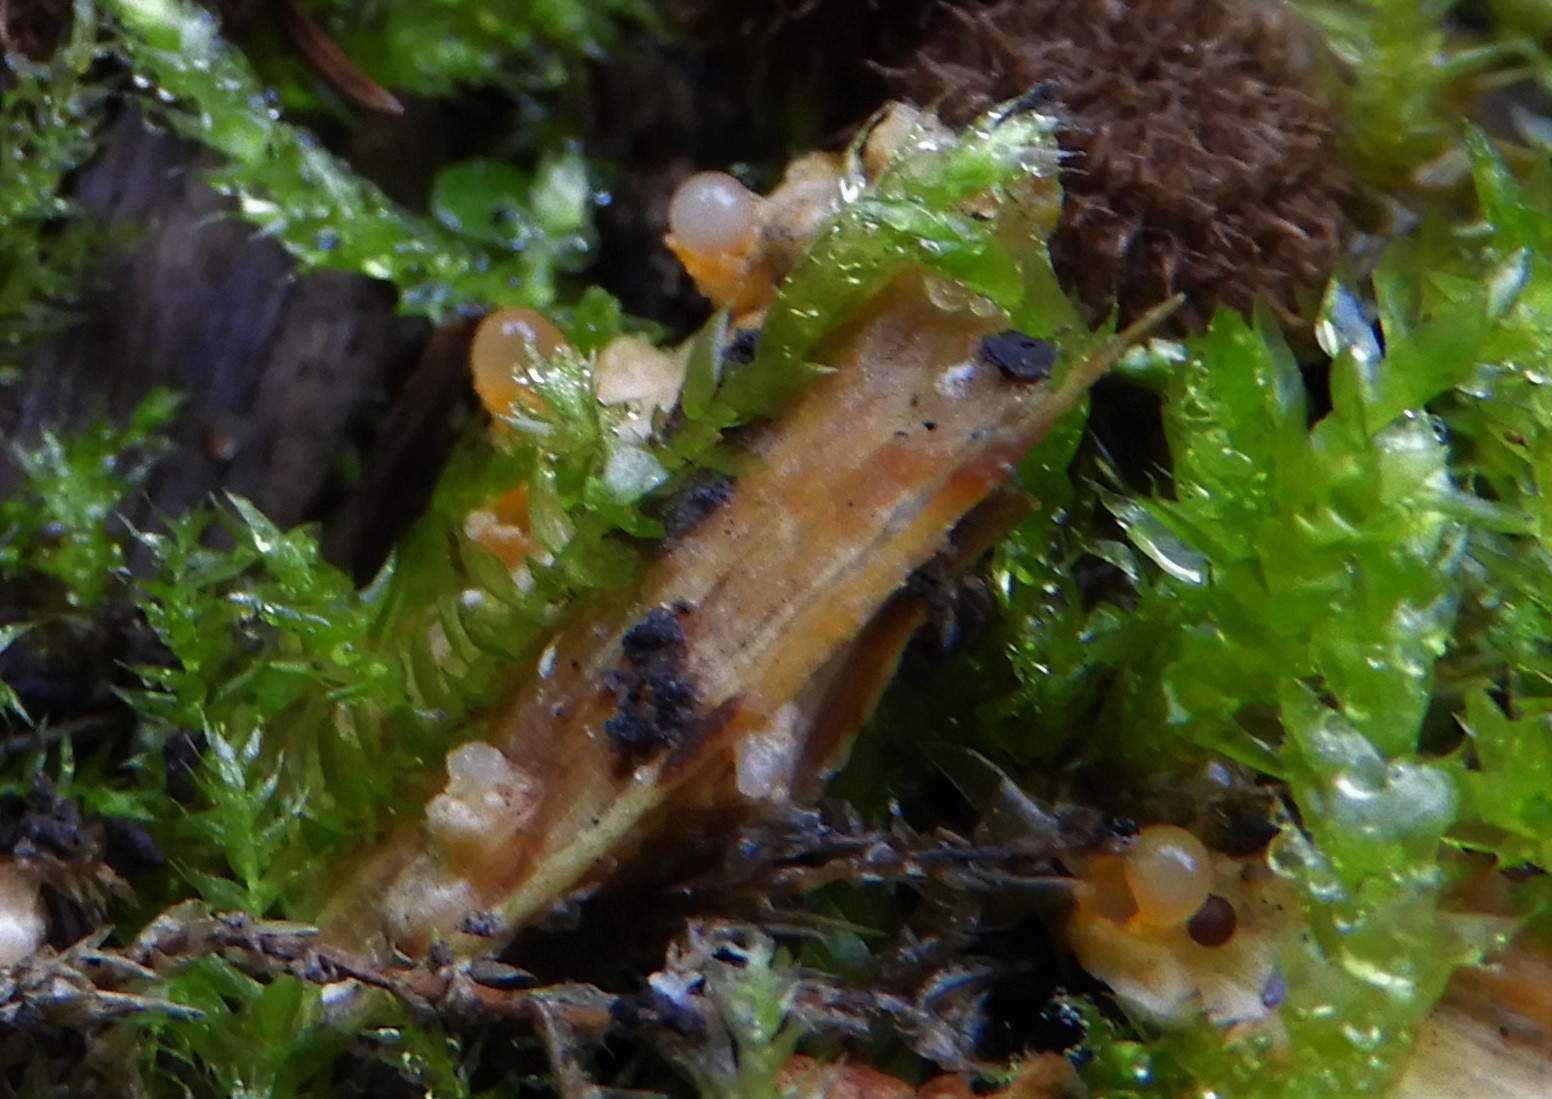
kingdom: Fungi
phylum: Basidiomycota
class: Agaricomycetes
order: Geastrales
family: Geastraceae
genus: Sphaerobolus
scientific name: Sphaerobolus stellatus
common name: bombekaster
